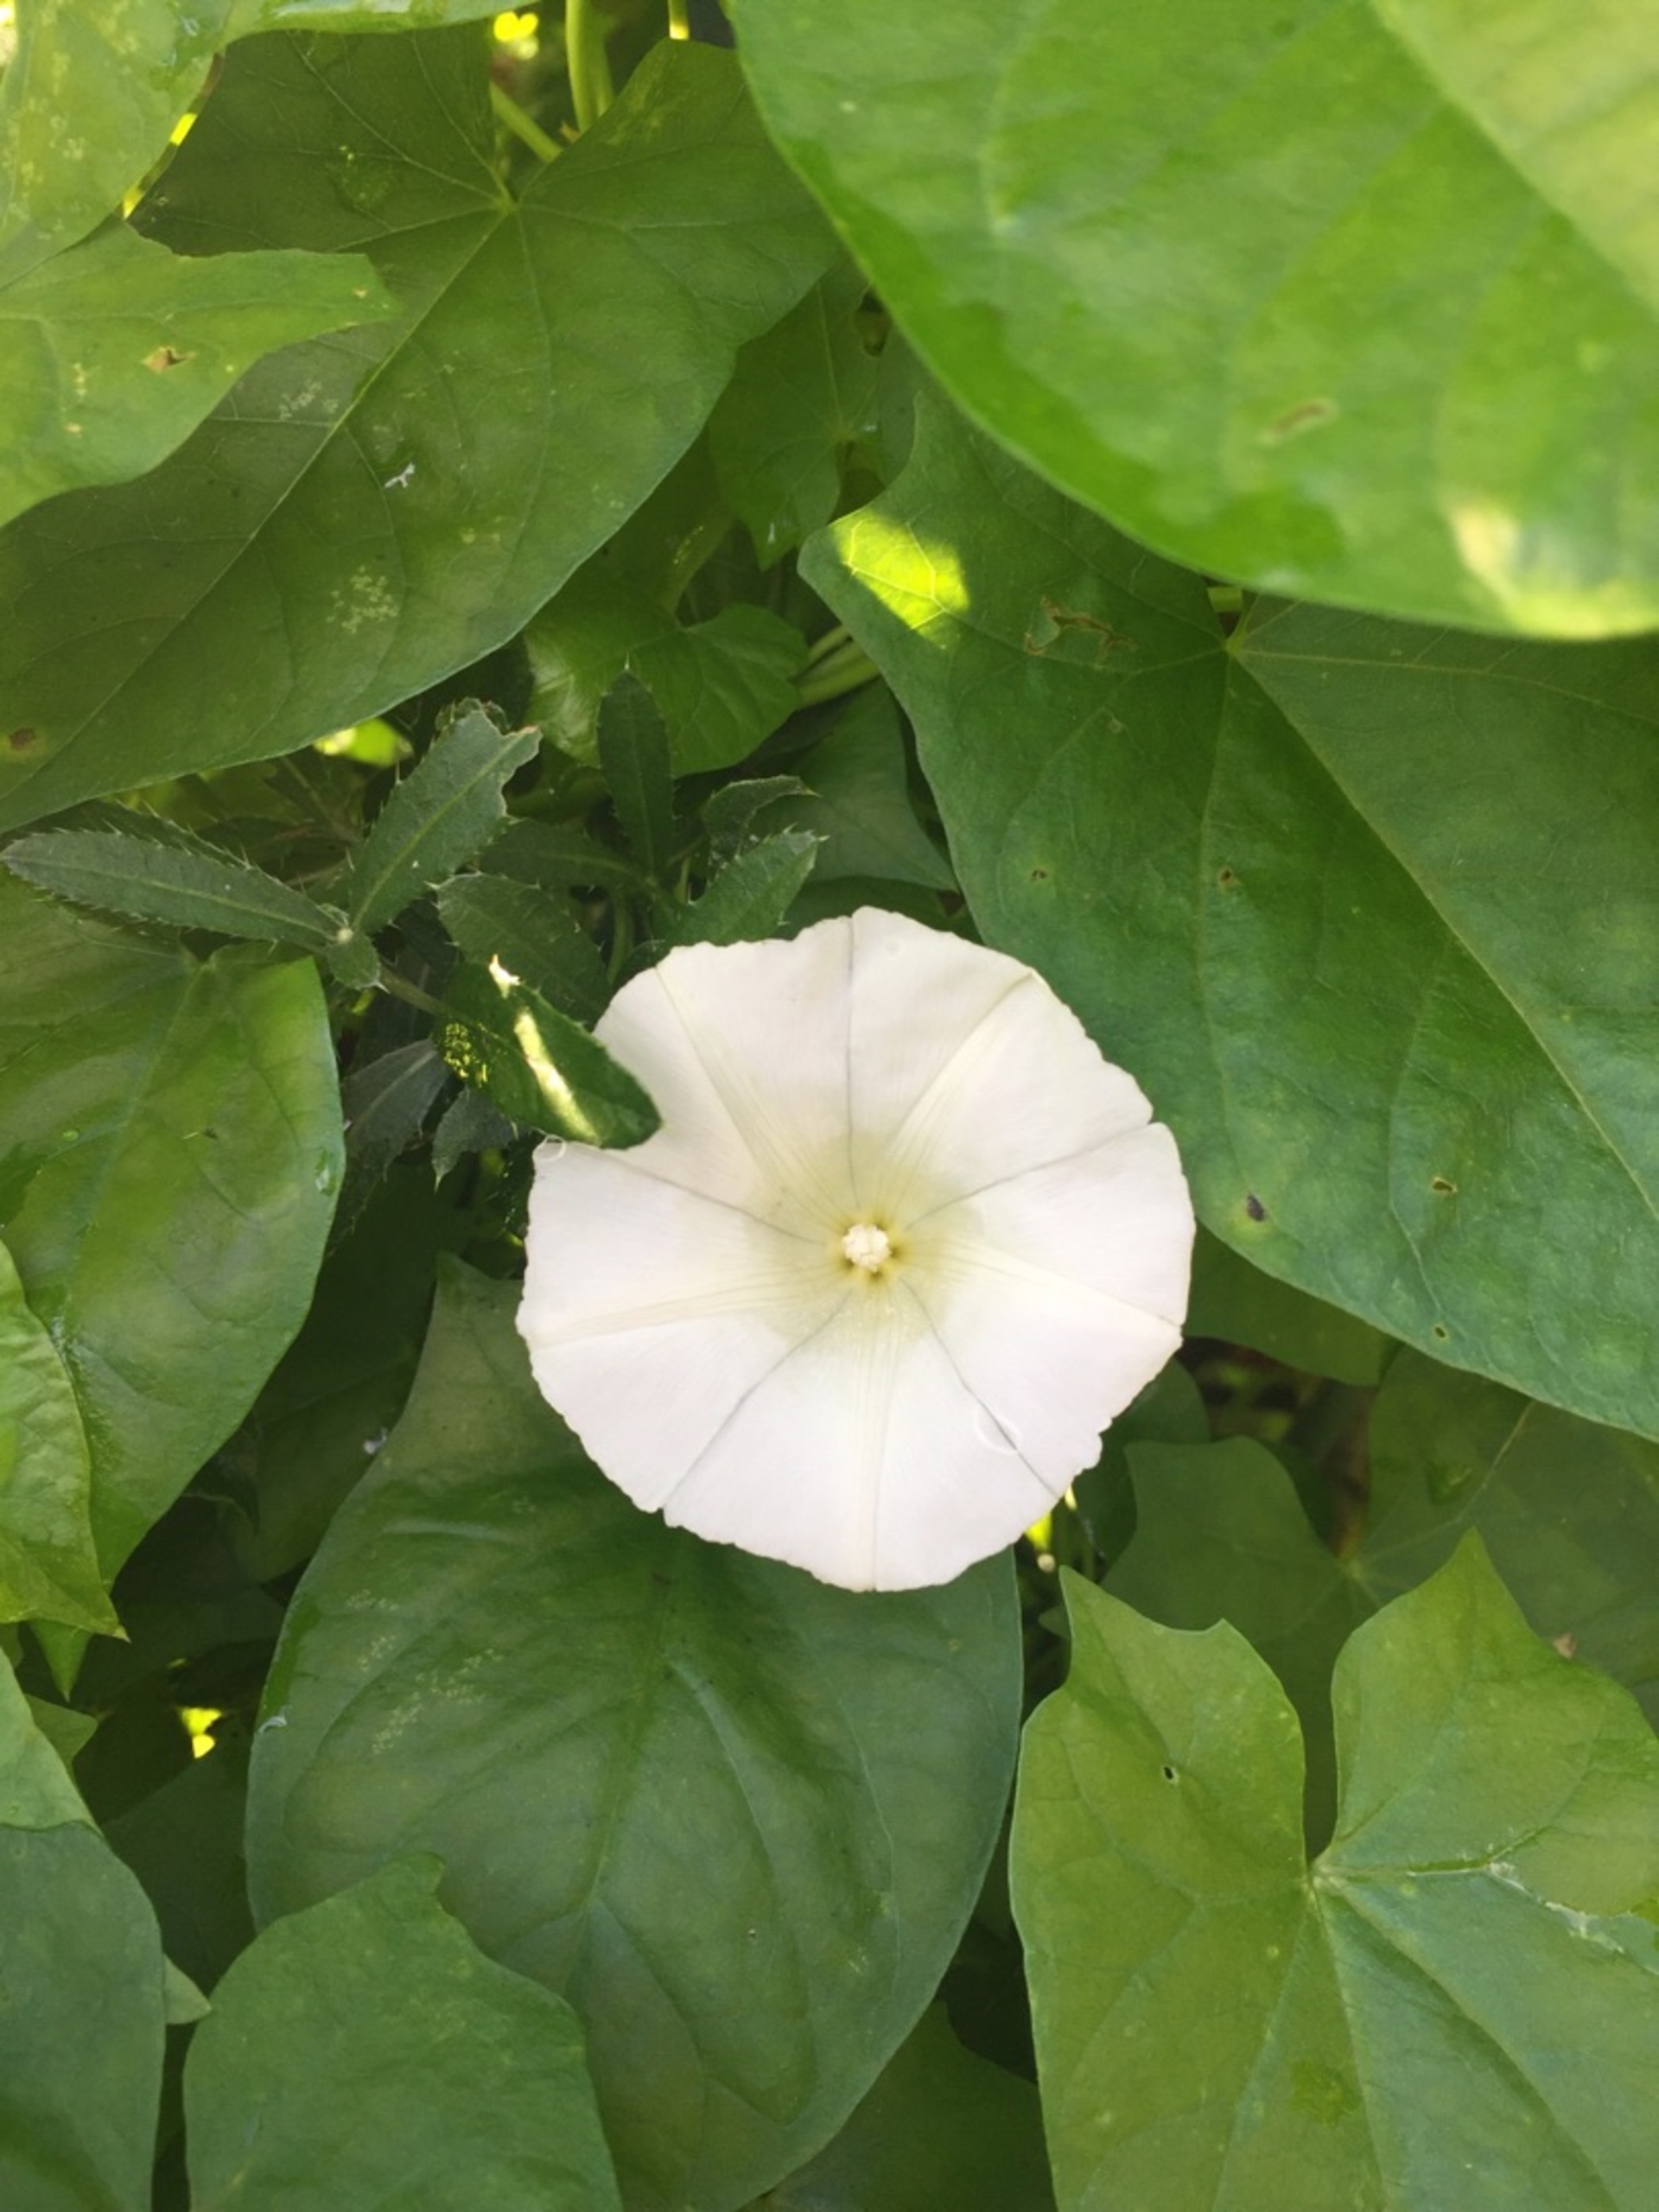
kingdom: Plantae
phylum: Tracheophyta
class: Magnoliopsida
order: Solanales
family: Convolvulaceae
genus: Calystegia
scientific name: Calystegia sepium
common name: Gærde-snerle
